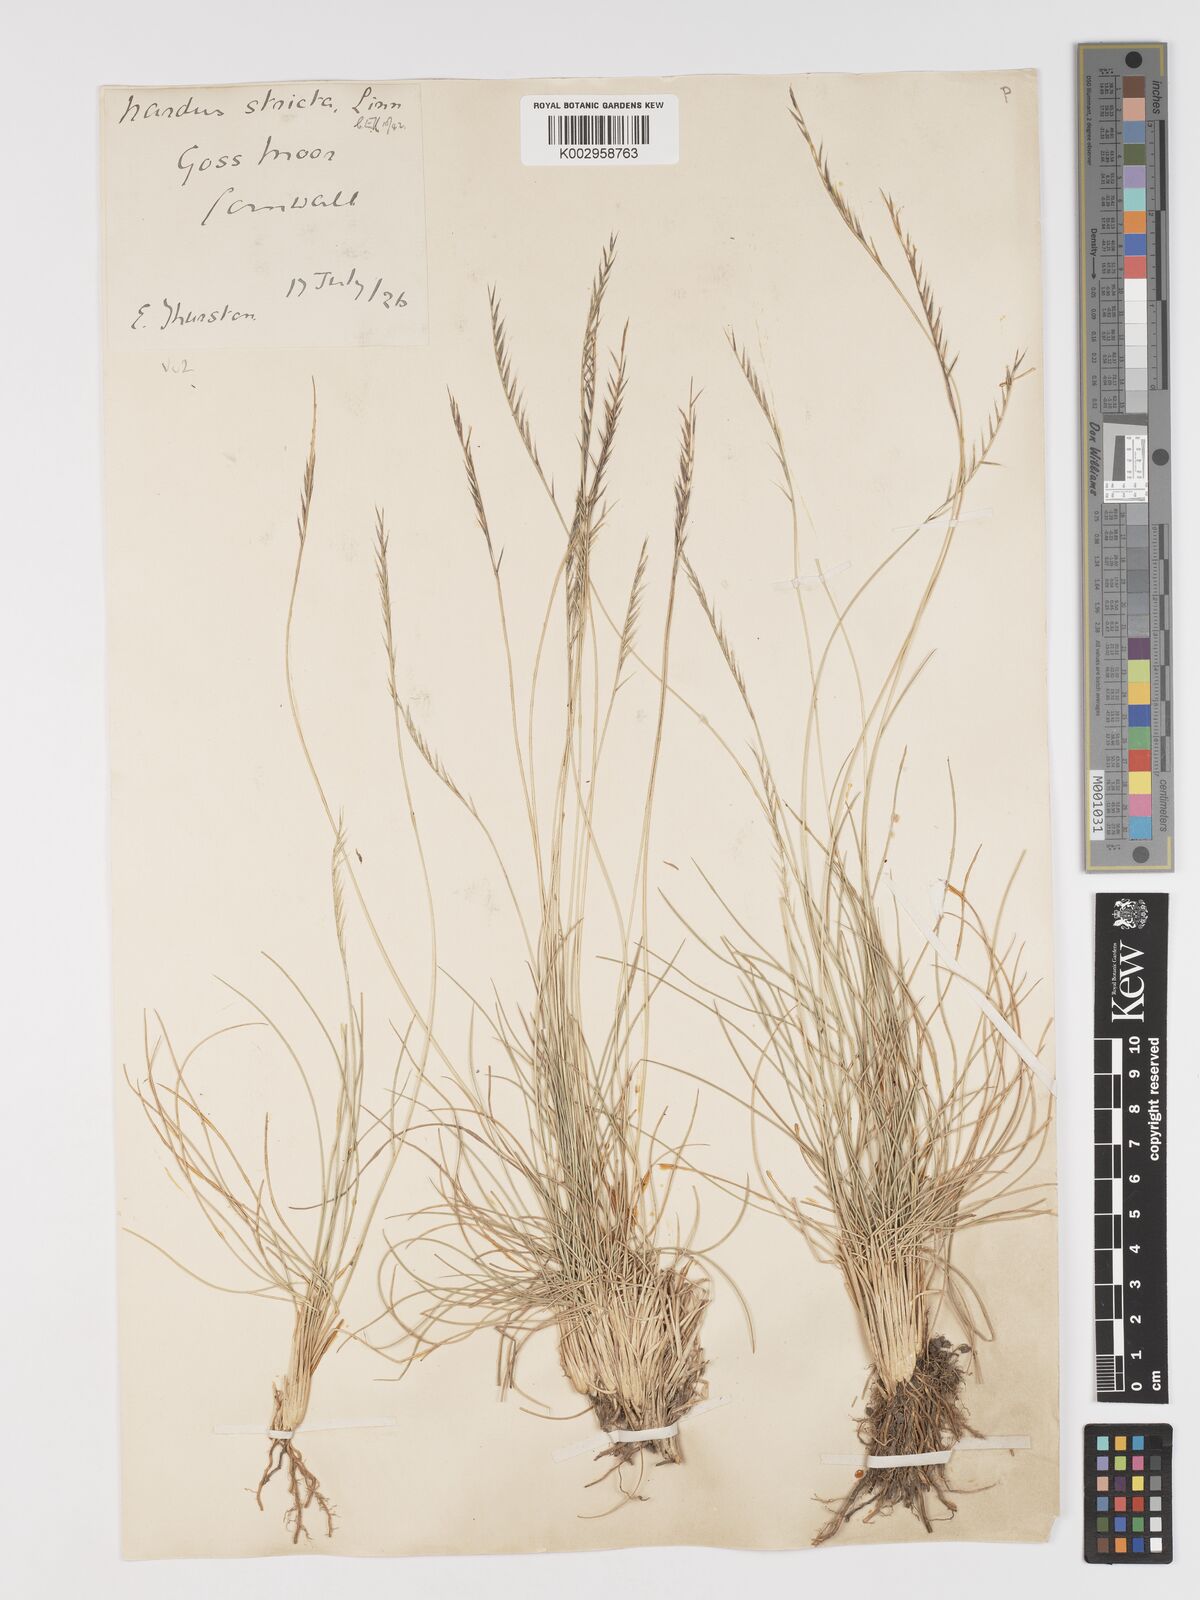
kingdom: Plantae
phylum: Tracheophyta
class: Liliopsida
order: Poales
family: Poaceae
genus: Nardus
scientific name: Nardus stricta
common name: Mat-grass
